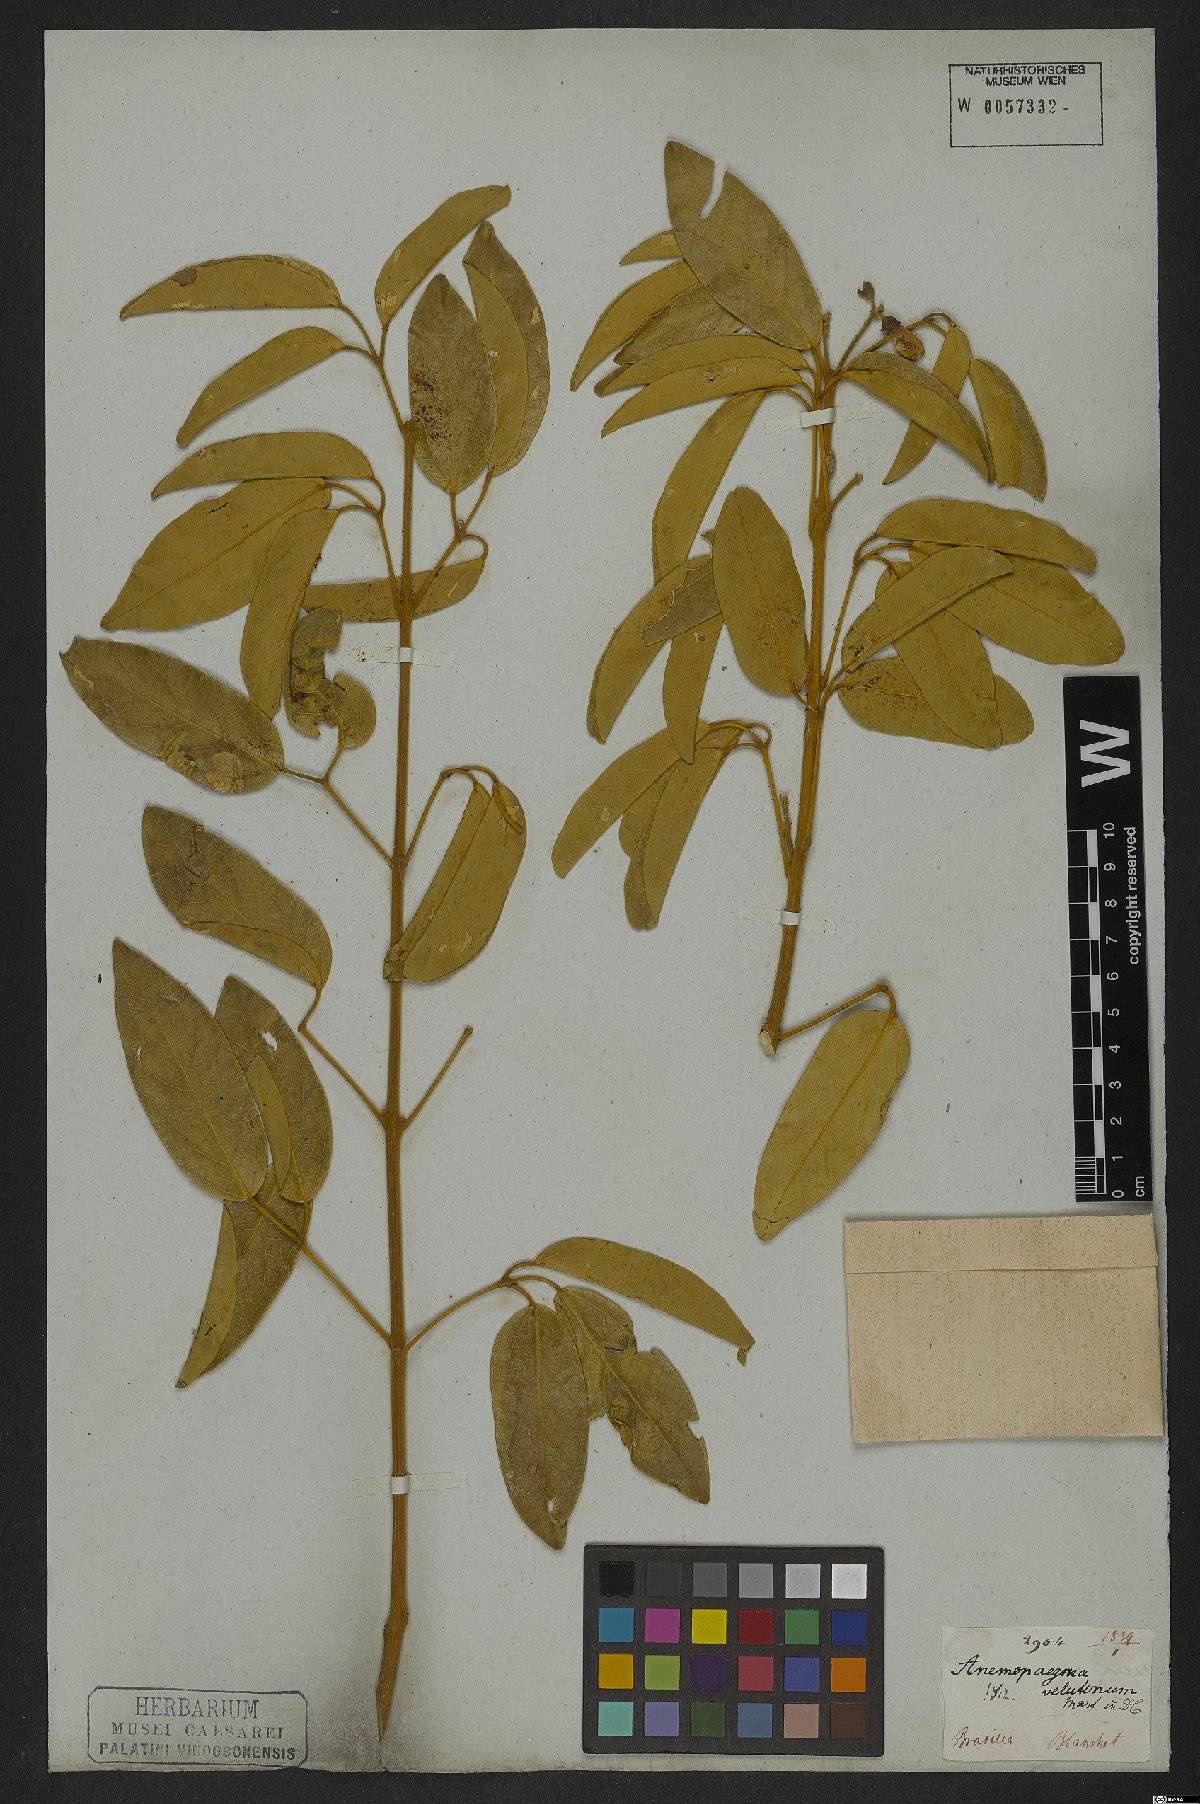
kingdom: Plantae
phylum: Tracheophyta
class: Magnoliopsida
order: Lamiales
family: Bignoniaceae
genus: Anemopaegma
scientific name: Anemopaegma velutinum
